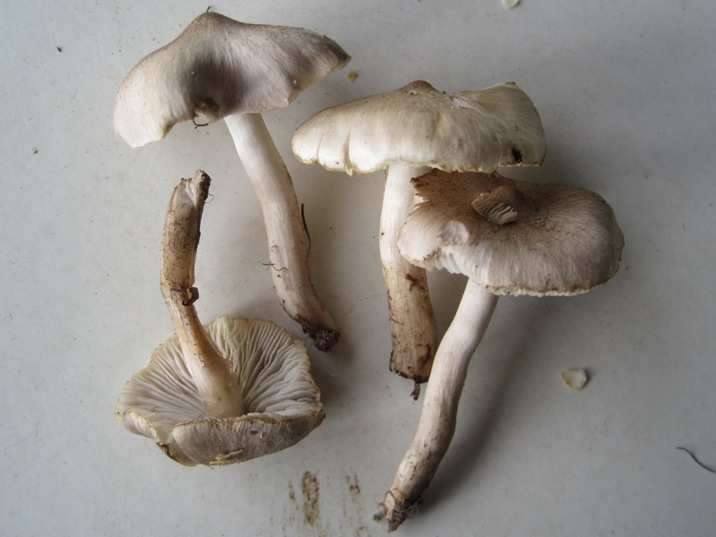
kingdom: Fungi
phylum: Basidiomycota
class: Agaricomycetes
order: Agaricales
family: Tricholomataceae
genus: Tricholoma
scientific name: Tricholoma argyraceum
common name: spids ridderhat
